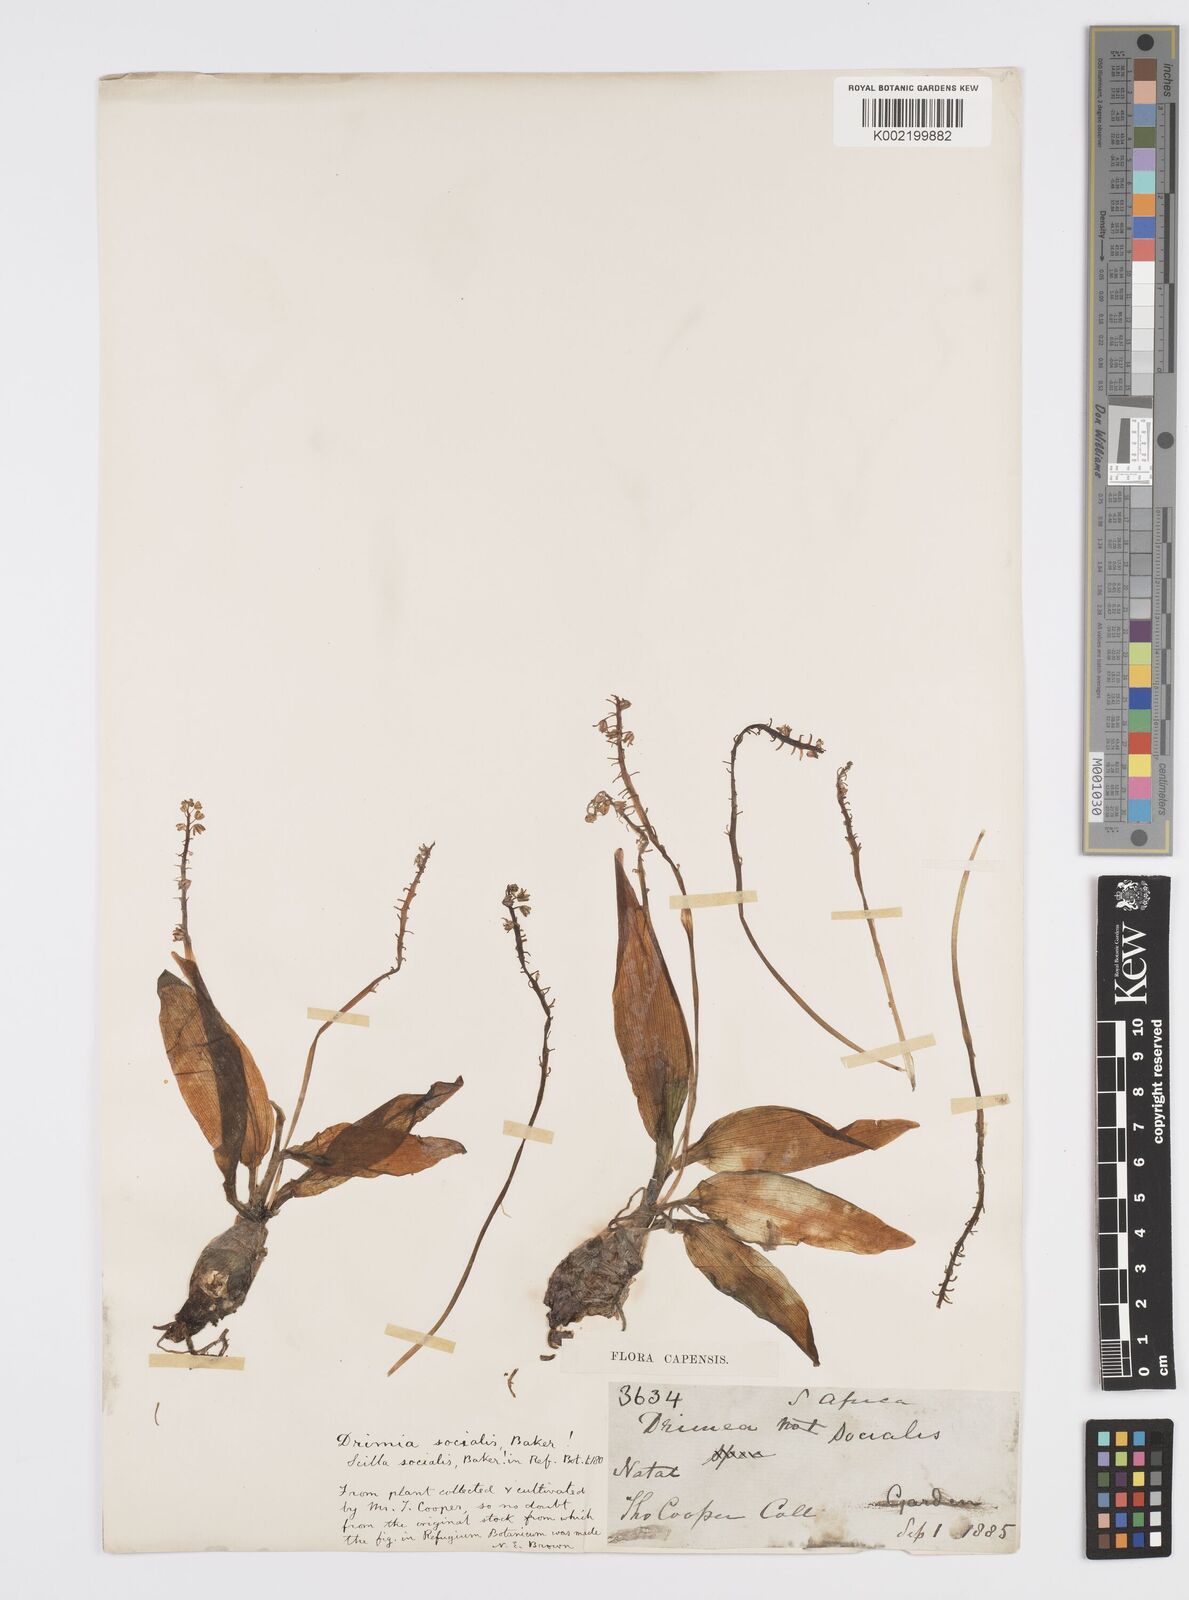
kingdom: Plantae
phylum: Tracheophyta
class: Liliopsida
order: Asparagales
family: Asparagaceae
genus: Ledebouria
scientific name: Ledebouria socialis
